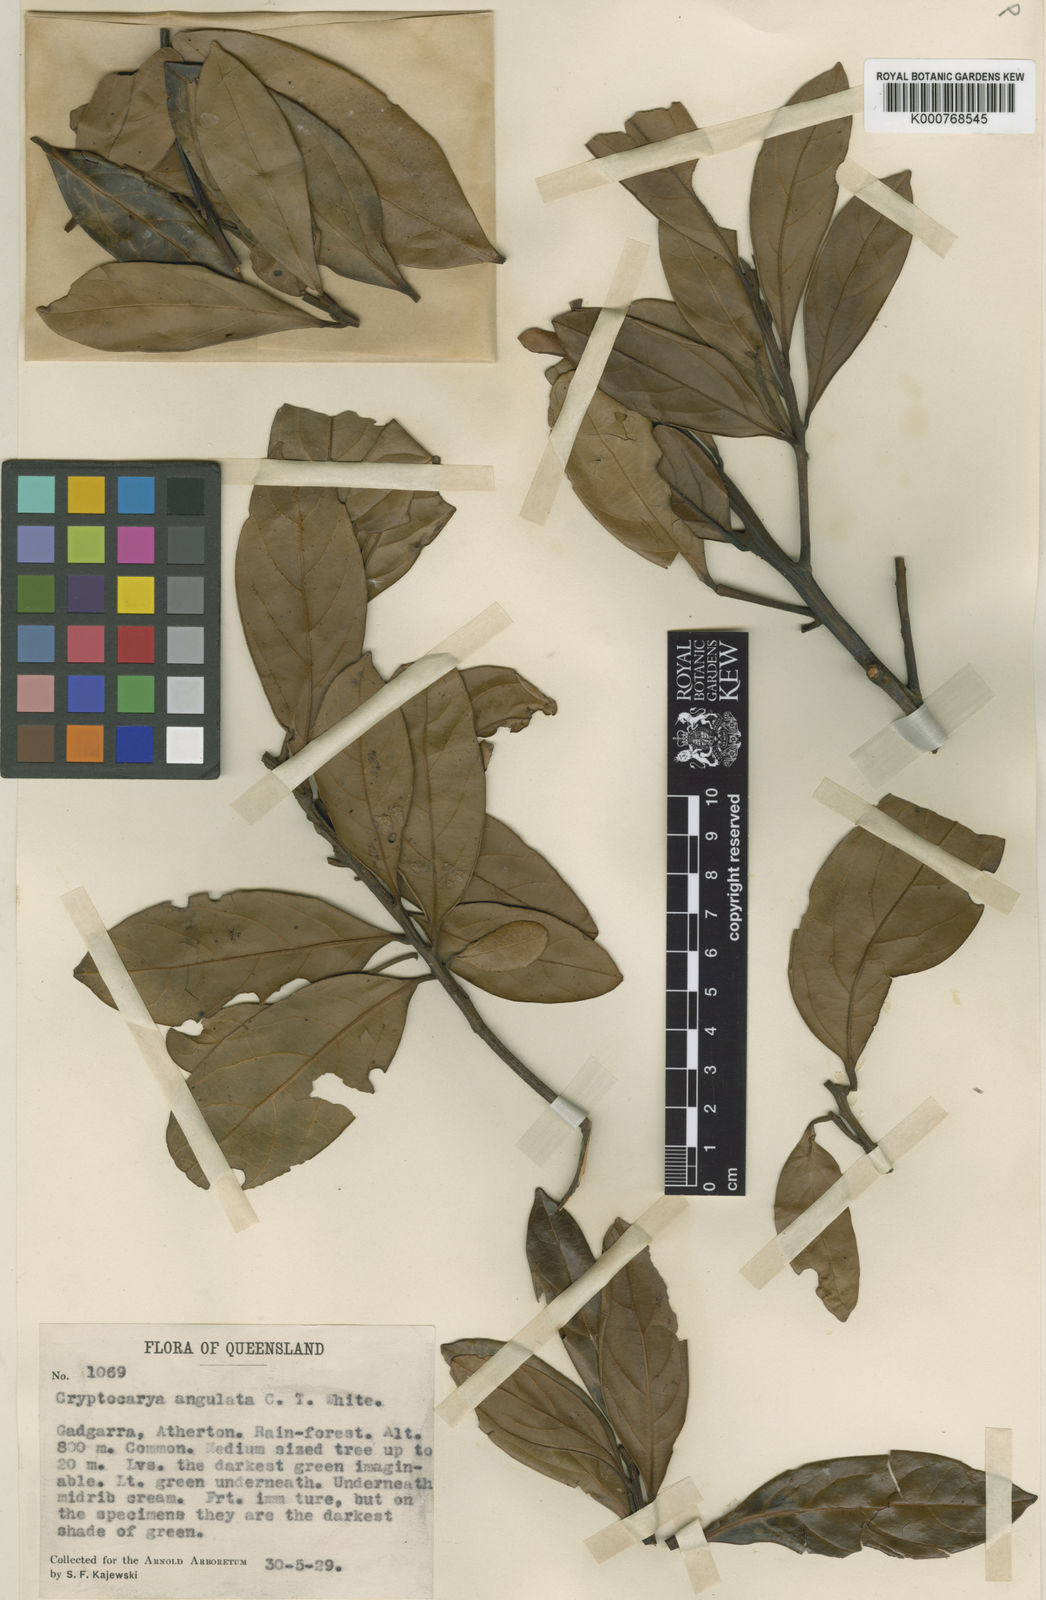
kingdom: Plantae
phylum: Tracheophyta
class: Magnoliopsida
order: Laurales
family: Lauraceae
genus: Cryptocarya
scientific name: Cryptocarya angulata
